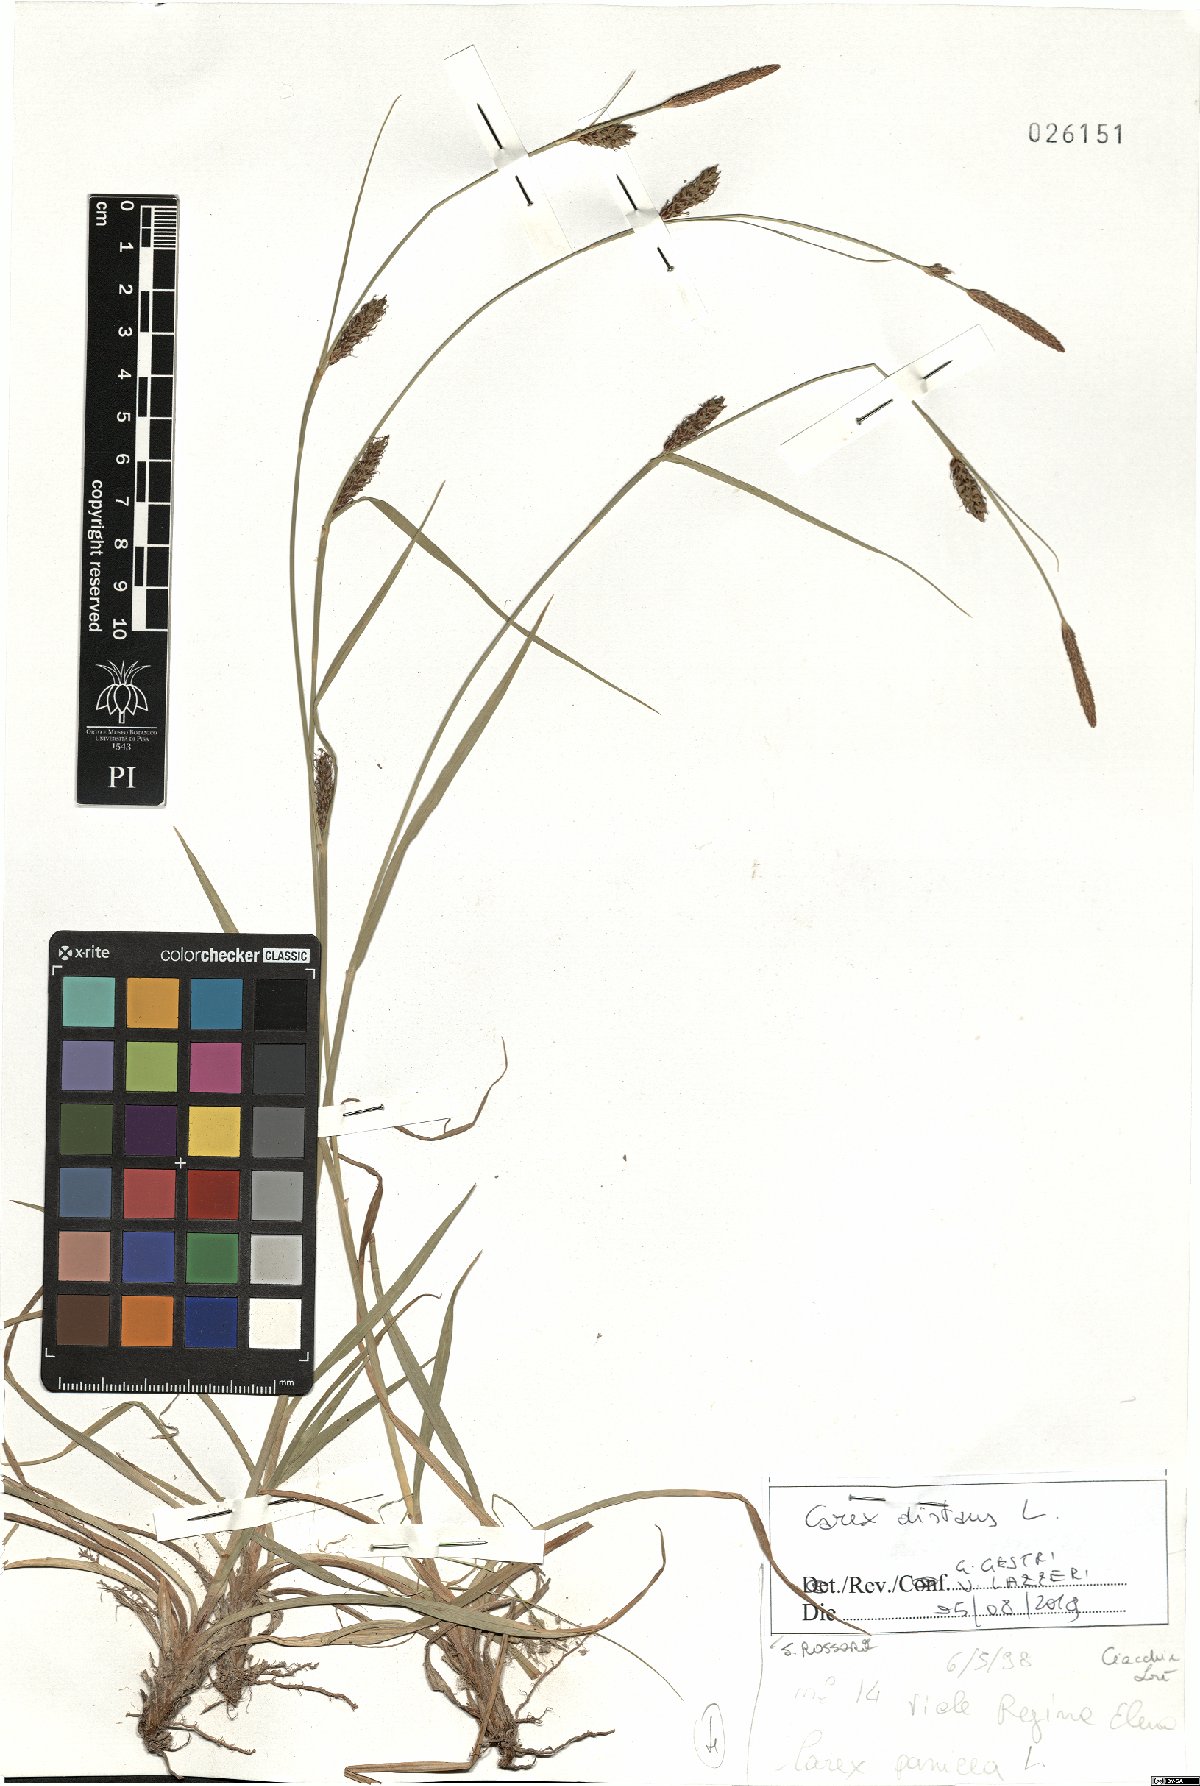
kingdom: Plantae
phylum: Tracheophyta
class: Liliopsida
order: Poales
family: Cyperaceae
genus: Carex
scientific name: Carex distans
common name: Distant sedge
